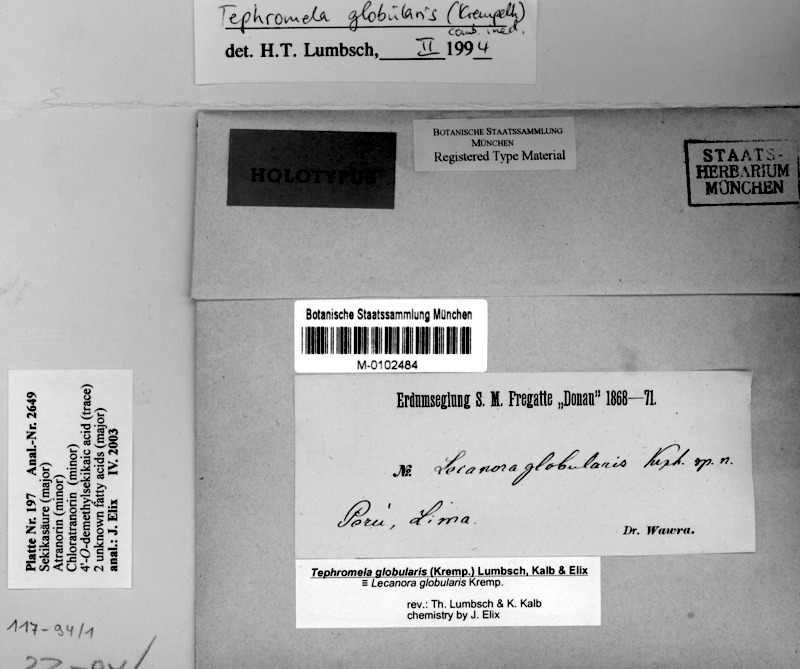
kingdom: Fungi
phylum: Ascomycota
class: Lecanoromycetes
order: Lecanorales
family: Tephromelataceae
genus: Tephromela
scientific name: Tephromela globularis
